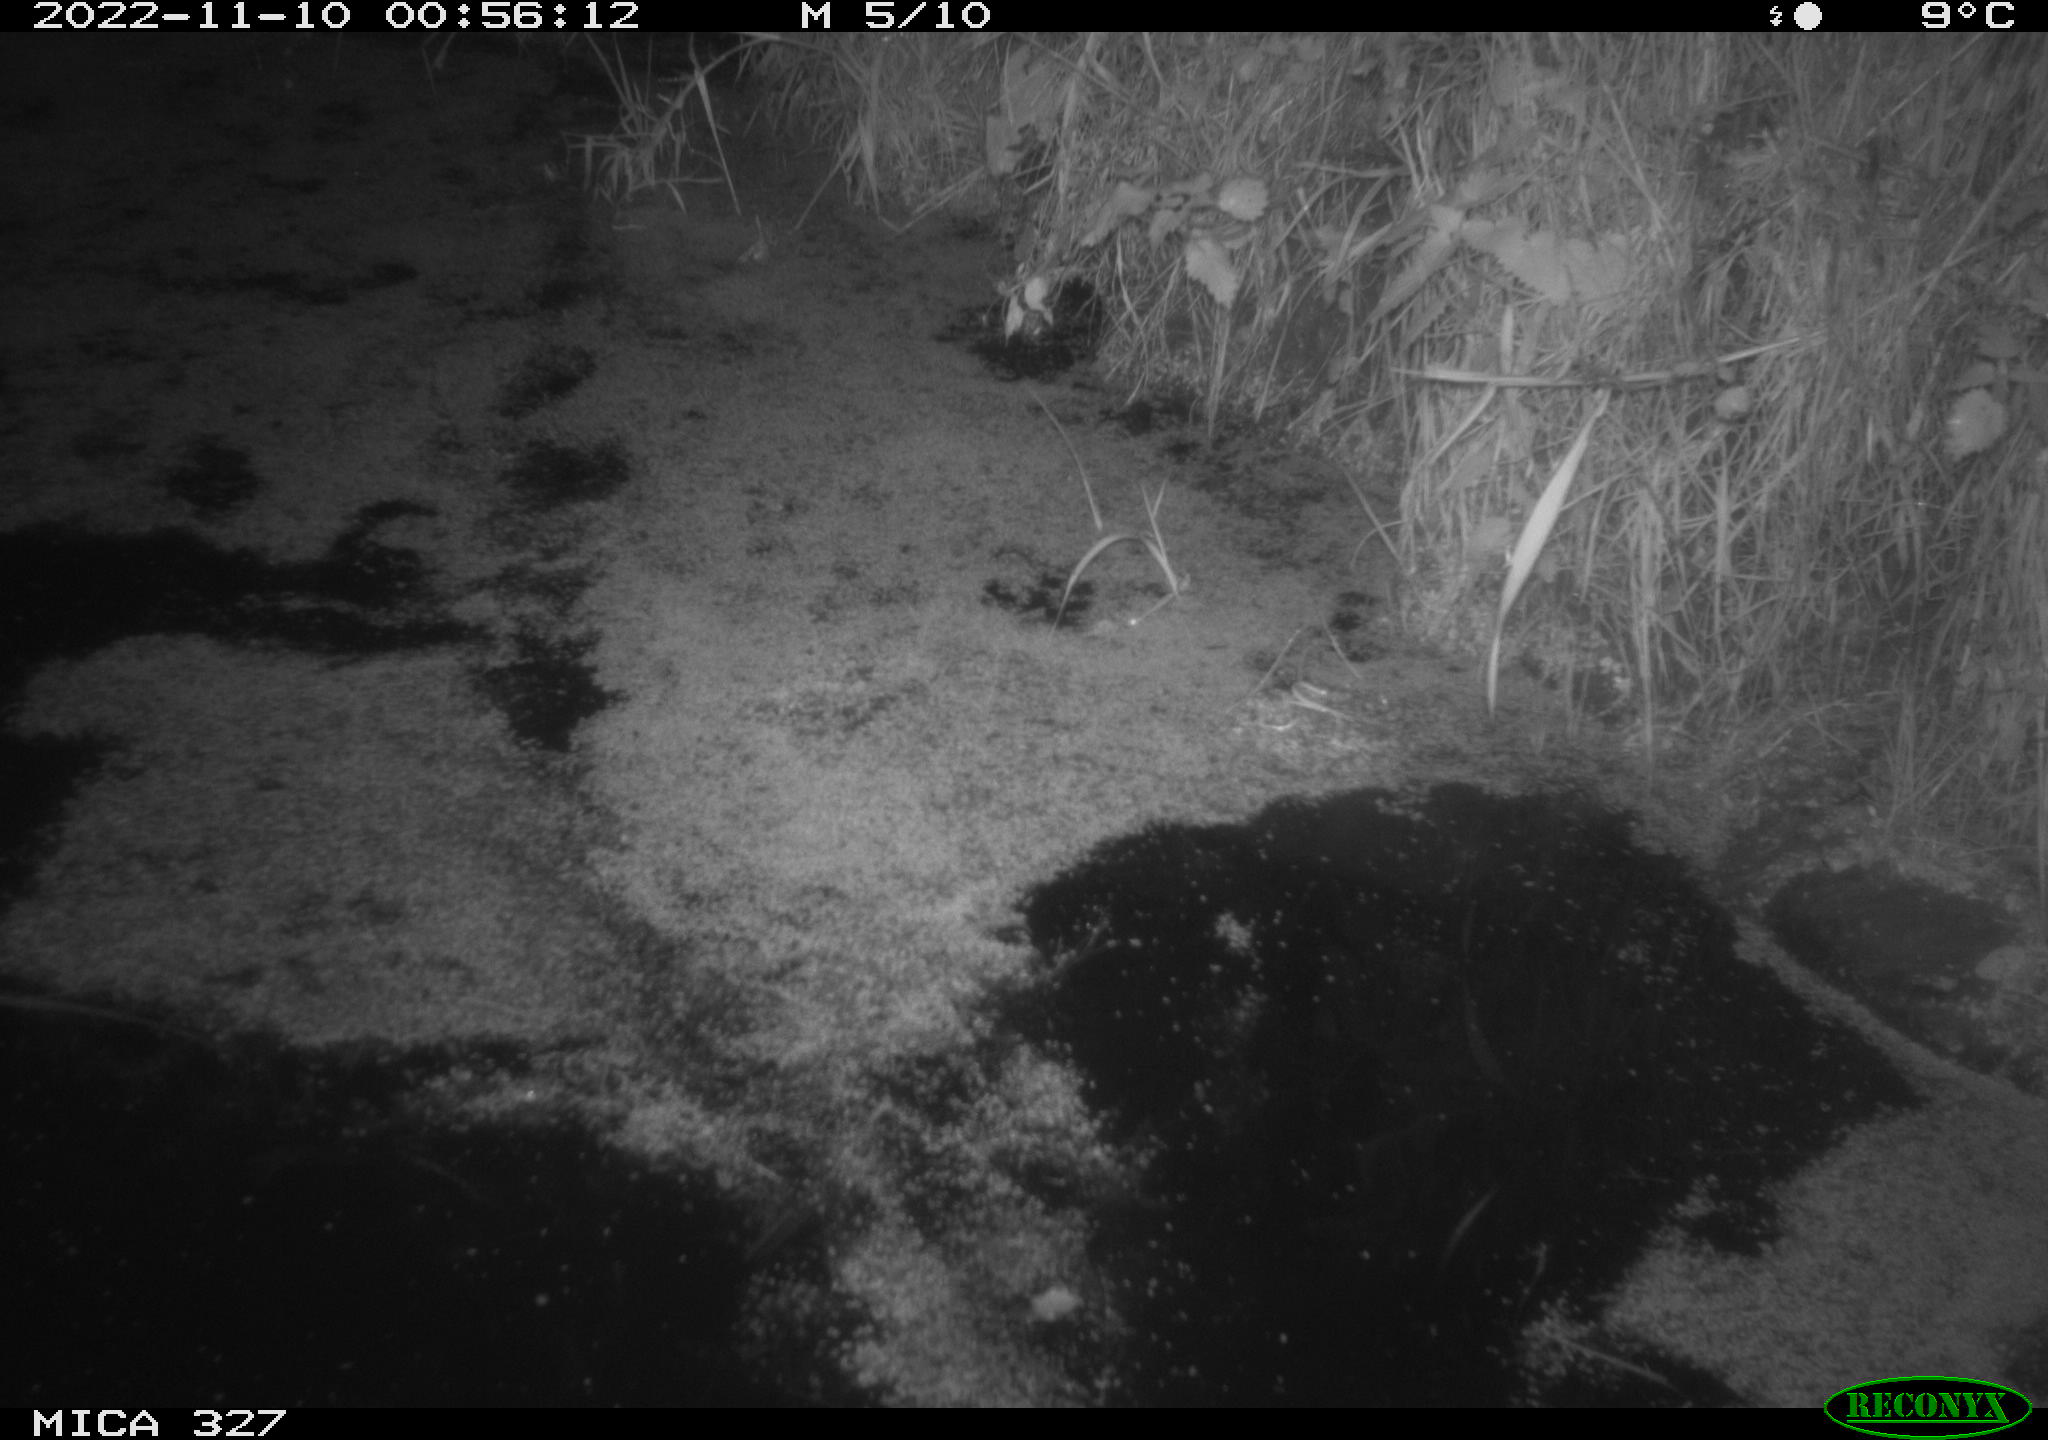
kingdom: Animalia
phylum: Chordata
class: Mammalia
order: Rodentia
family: Cricetidae
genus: Ondatra
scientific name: Ondatra zibethicus
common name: Muskrat
